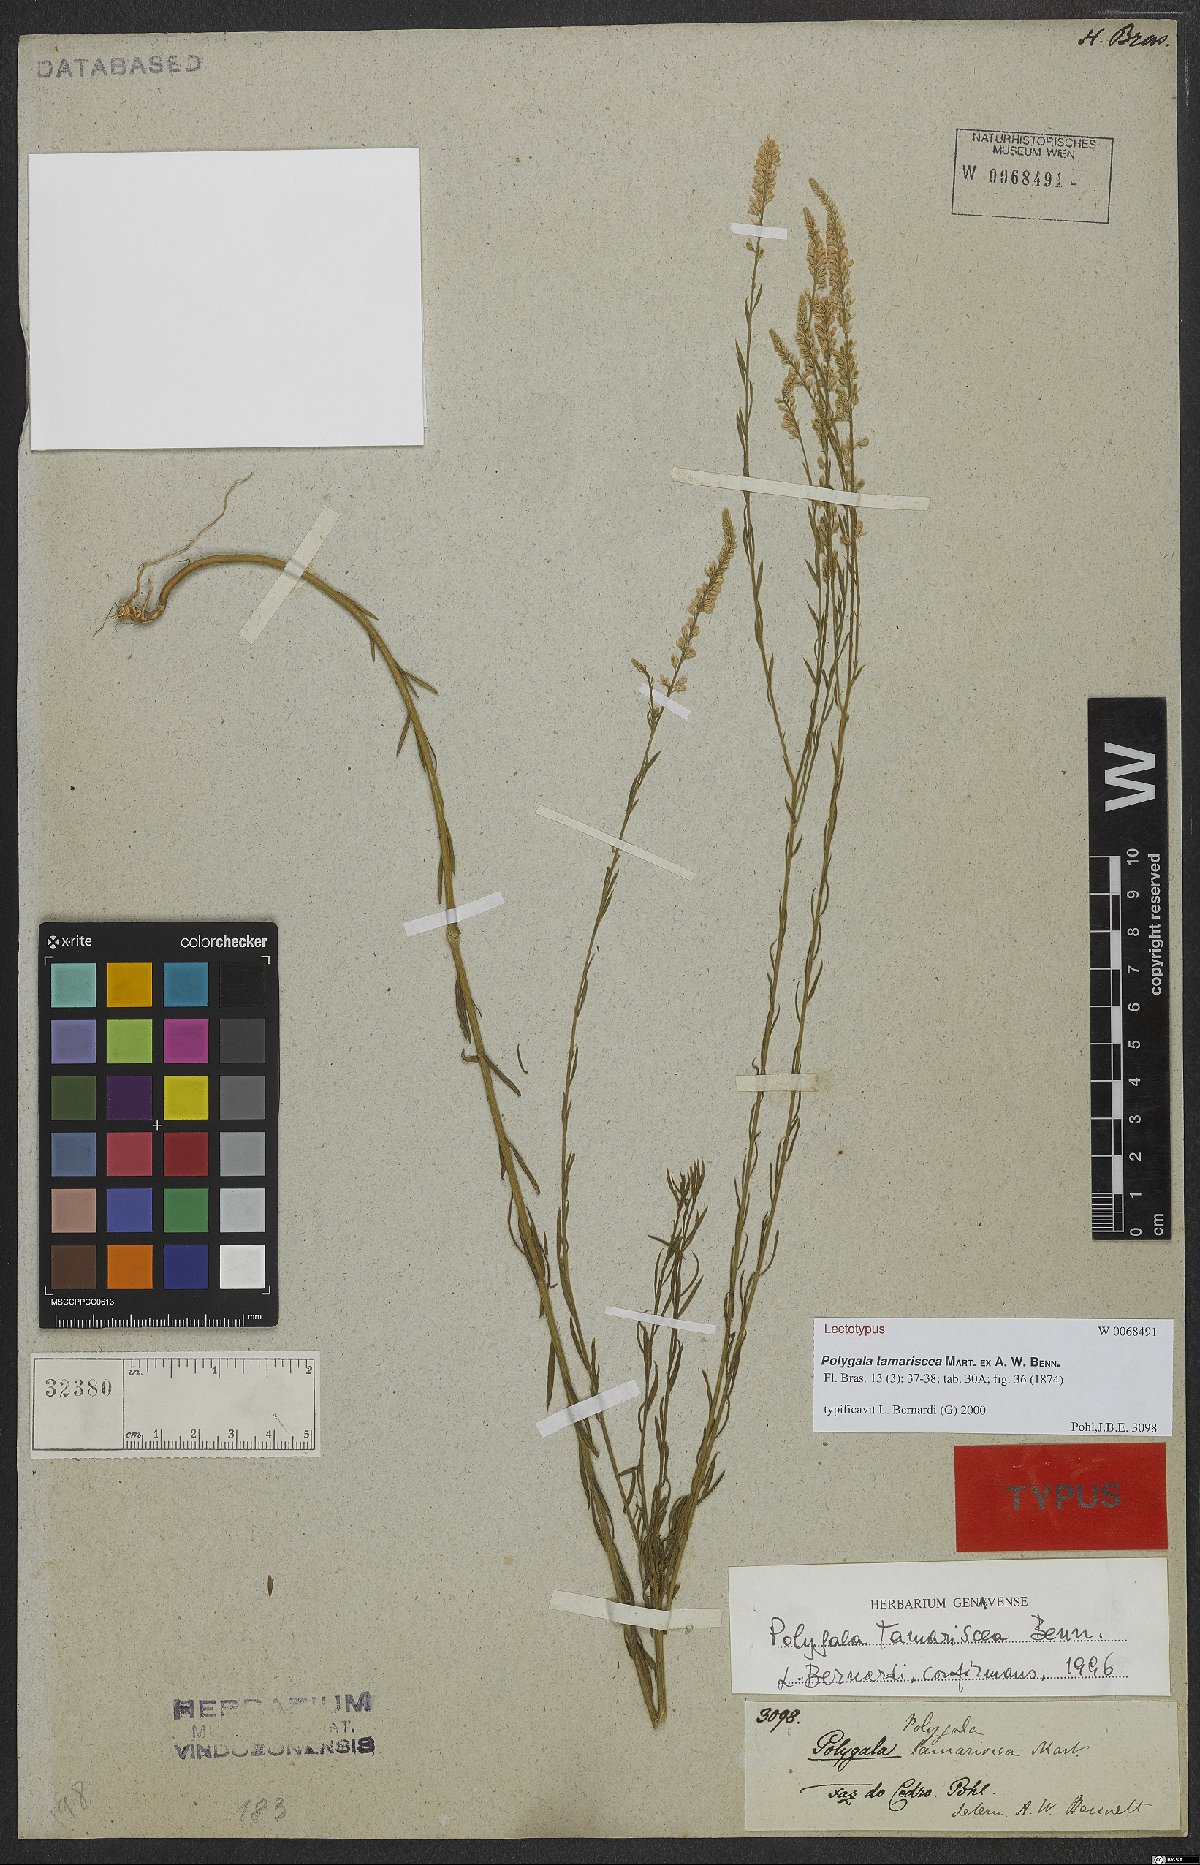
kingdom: Plantae
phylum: Tracheophyta
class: Magnoliopsida
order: Fabales
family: Polygalaceae
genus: Polygala
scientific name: Polygala tamariscea
